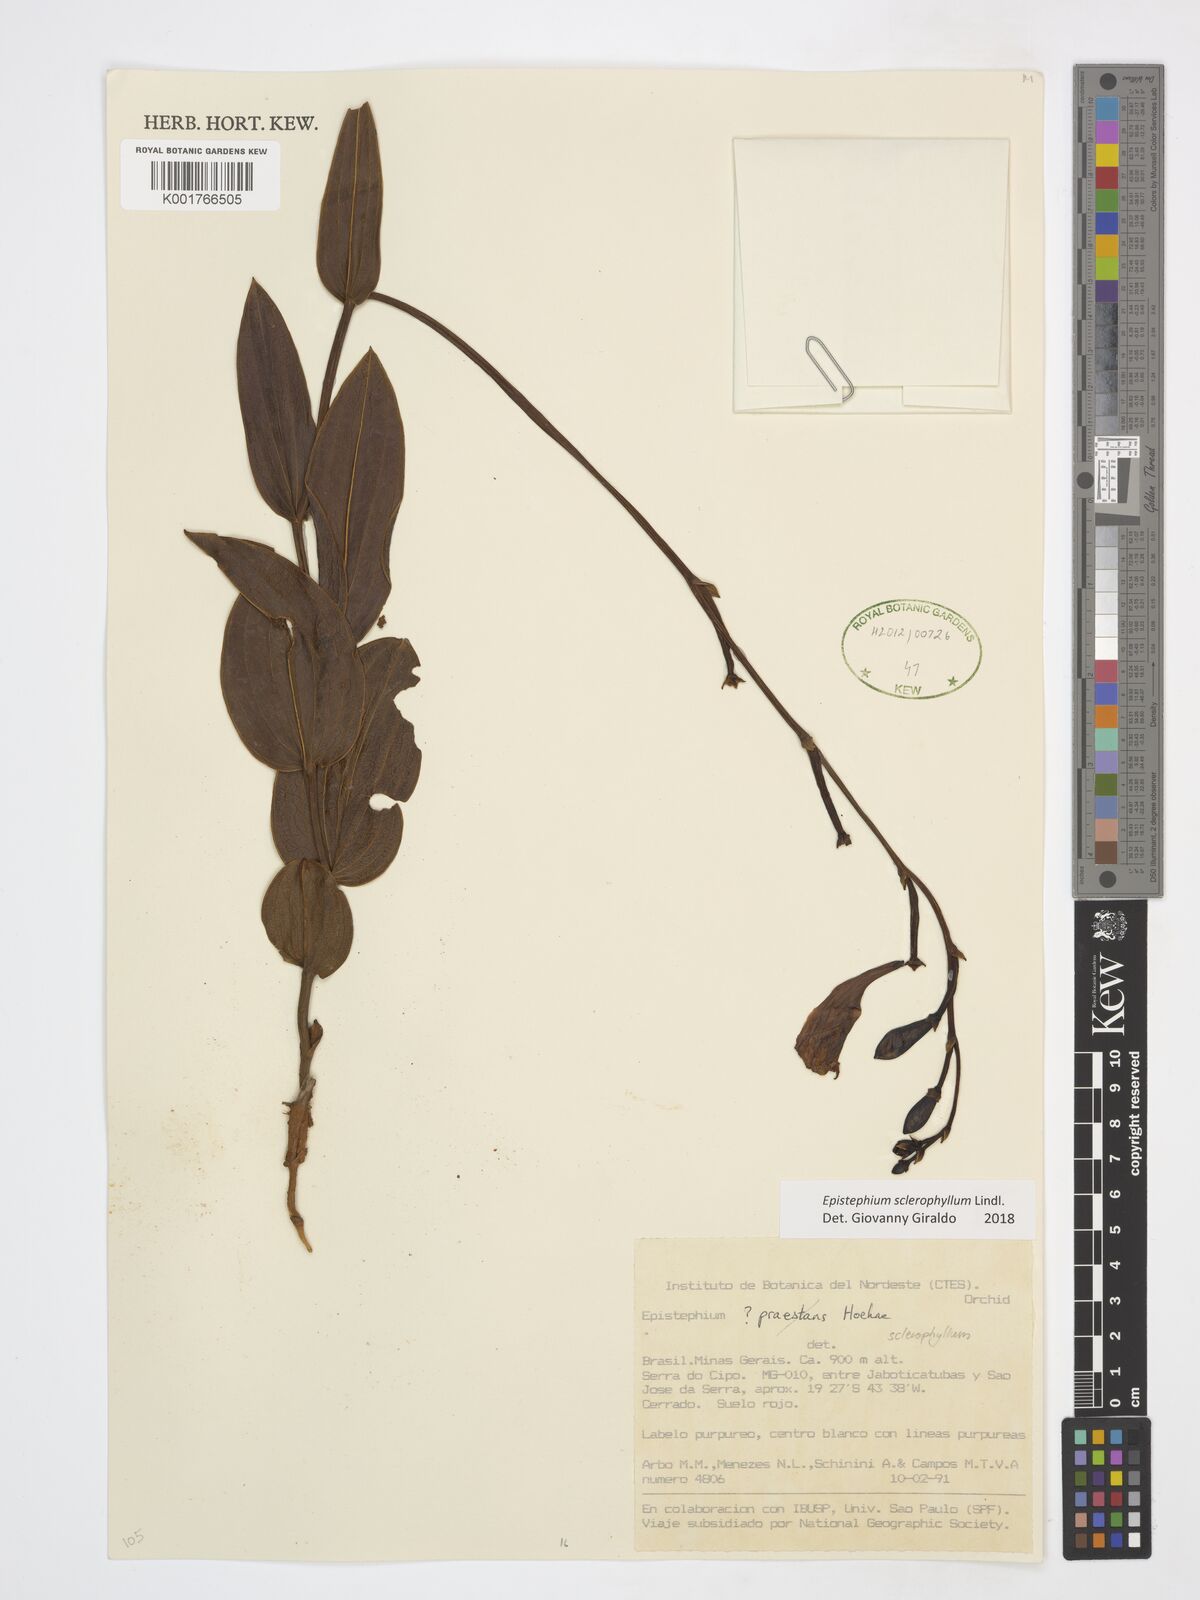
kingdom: Plantae
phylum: Tracheophyta
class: Liliopsida
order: Asparagales
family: Orchidaceae
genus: Epistephium
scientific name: Epistephium sclerophyllum
